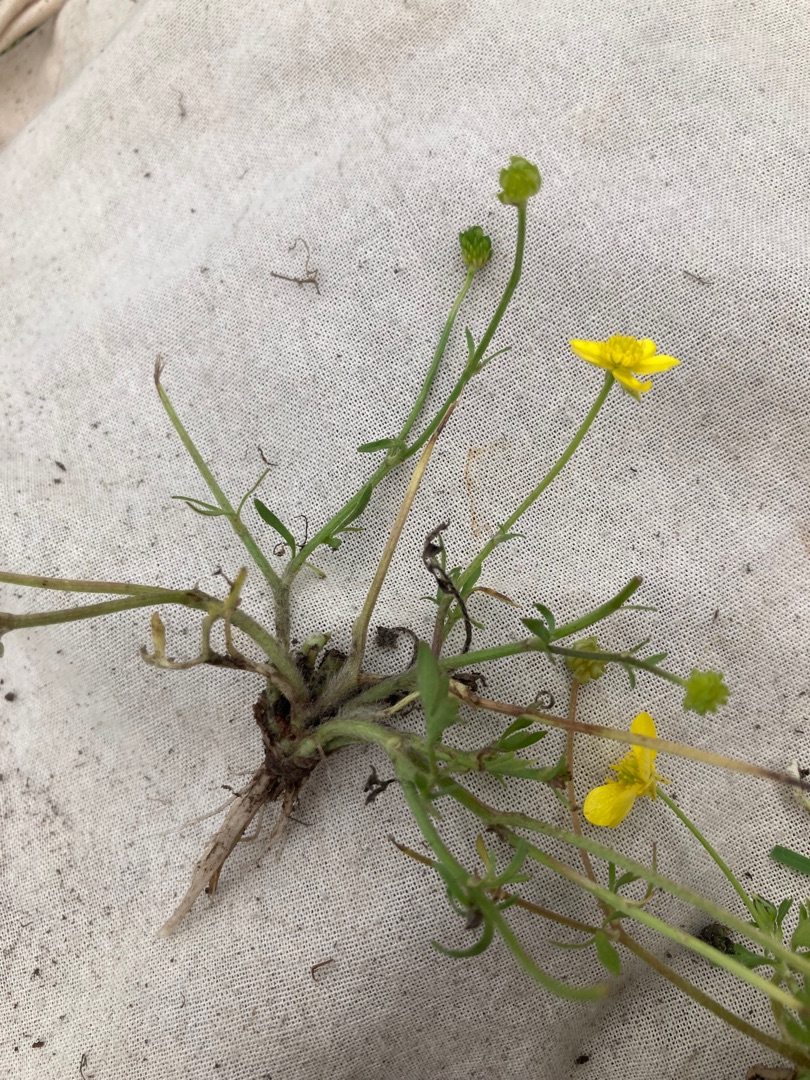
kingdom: Plantae
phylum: Tracheophyta
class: Magnoliopsida
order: Ranunculales
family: Ranunculaceae
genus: Ranunculus
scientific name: Ranunculus sardous
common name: Stivhåret ranunkel
